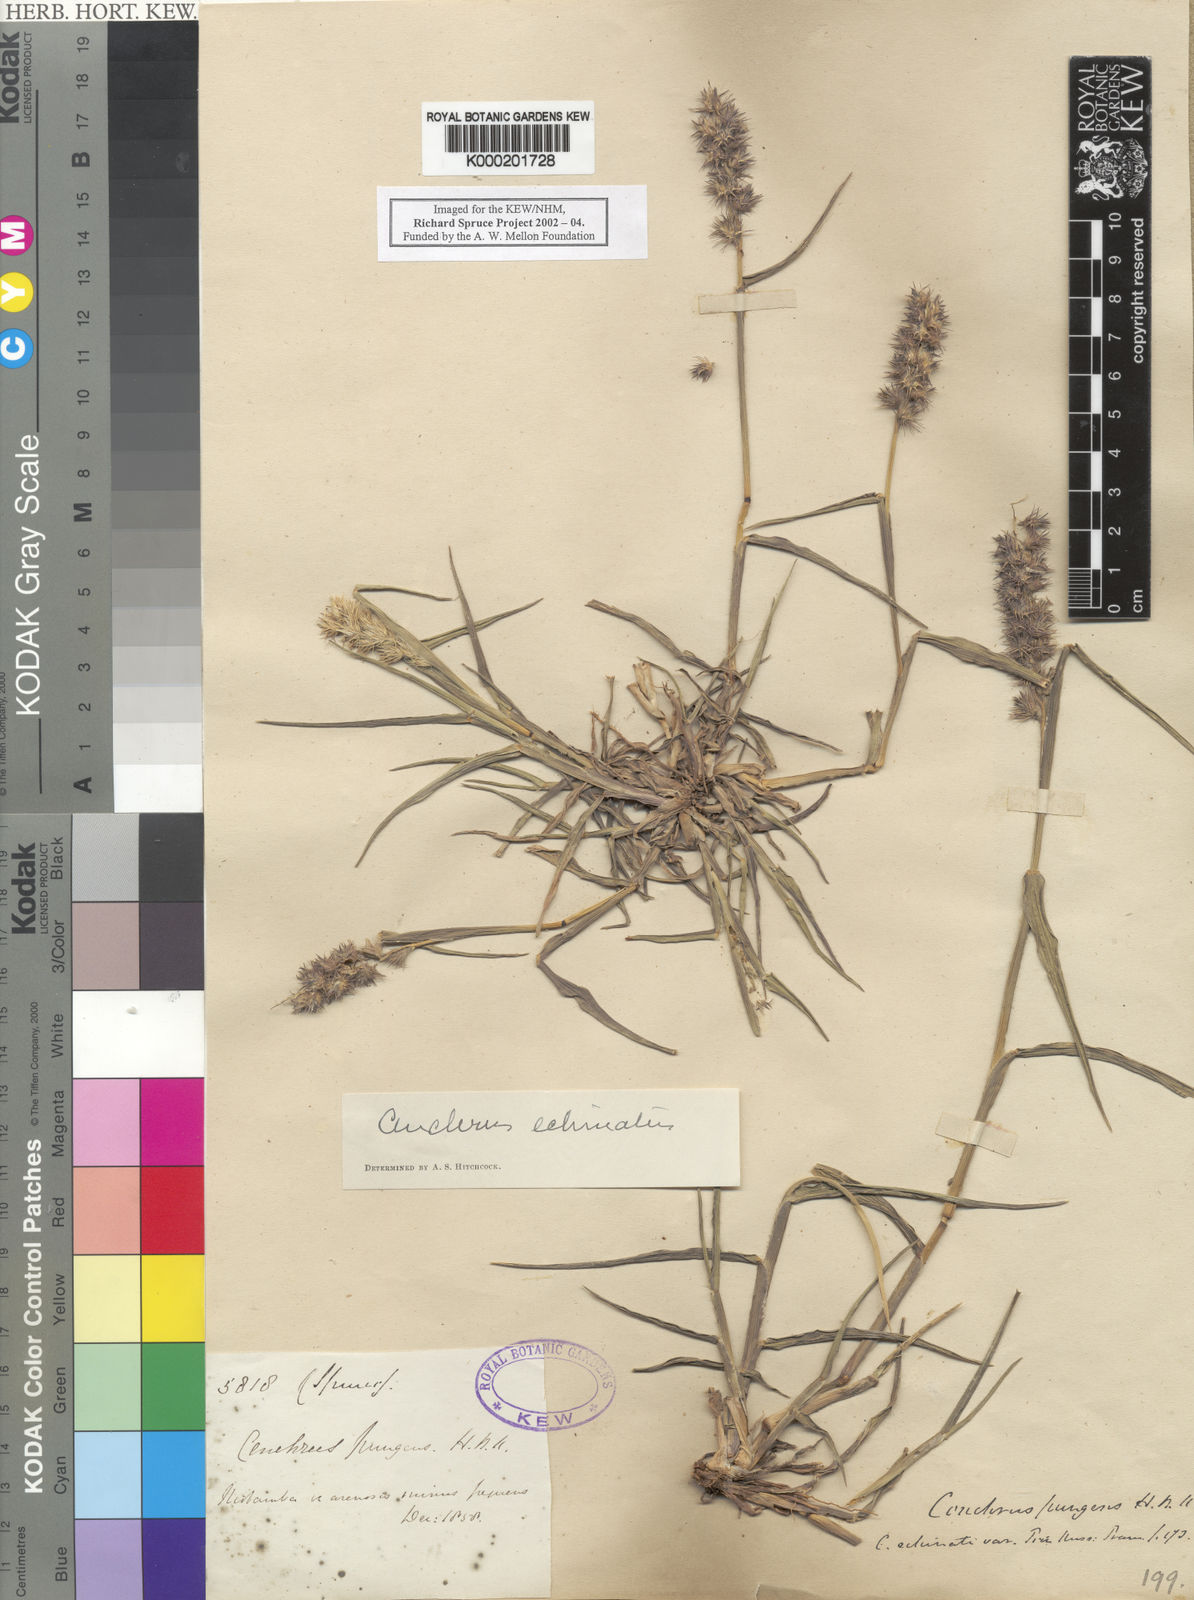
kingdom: Plantae
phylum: Tracheophyta
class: Liliopsida
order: Poales
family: Poaceae
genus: Cenchrus
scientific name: Cenchrus echinatus
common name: Southern sandbur
